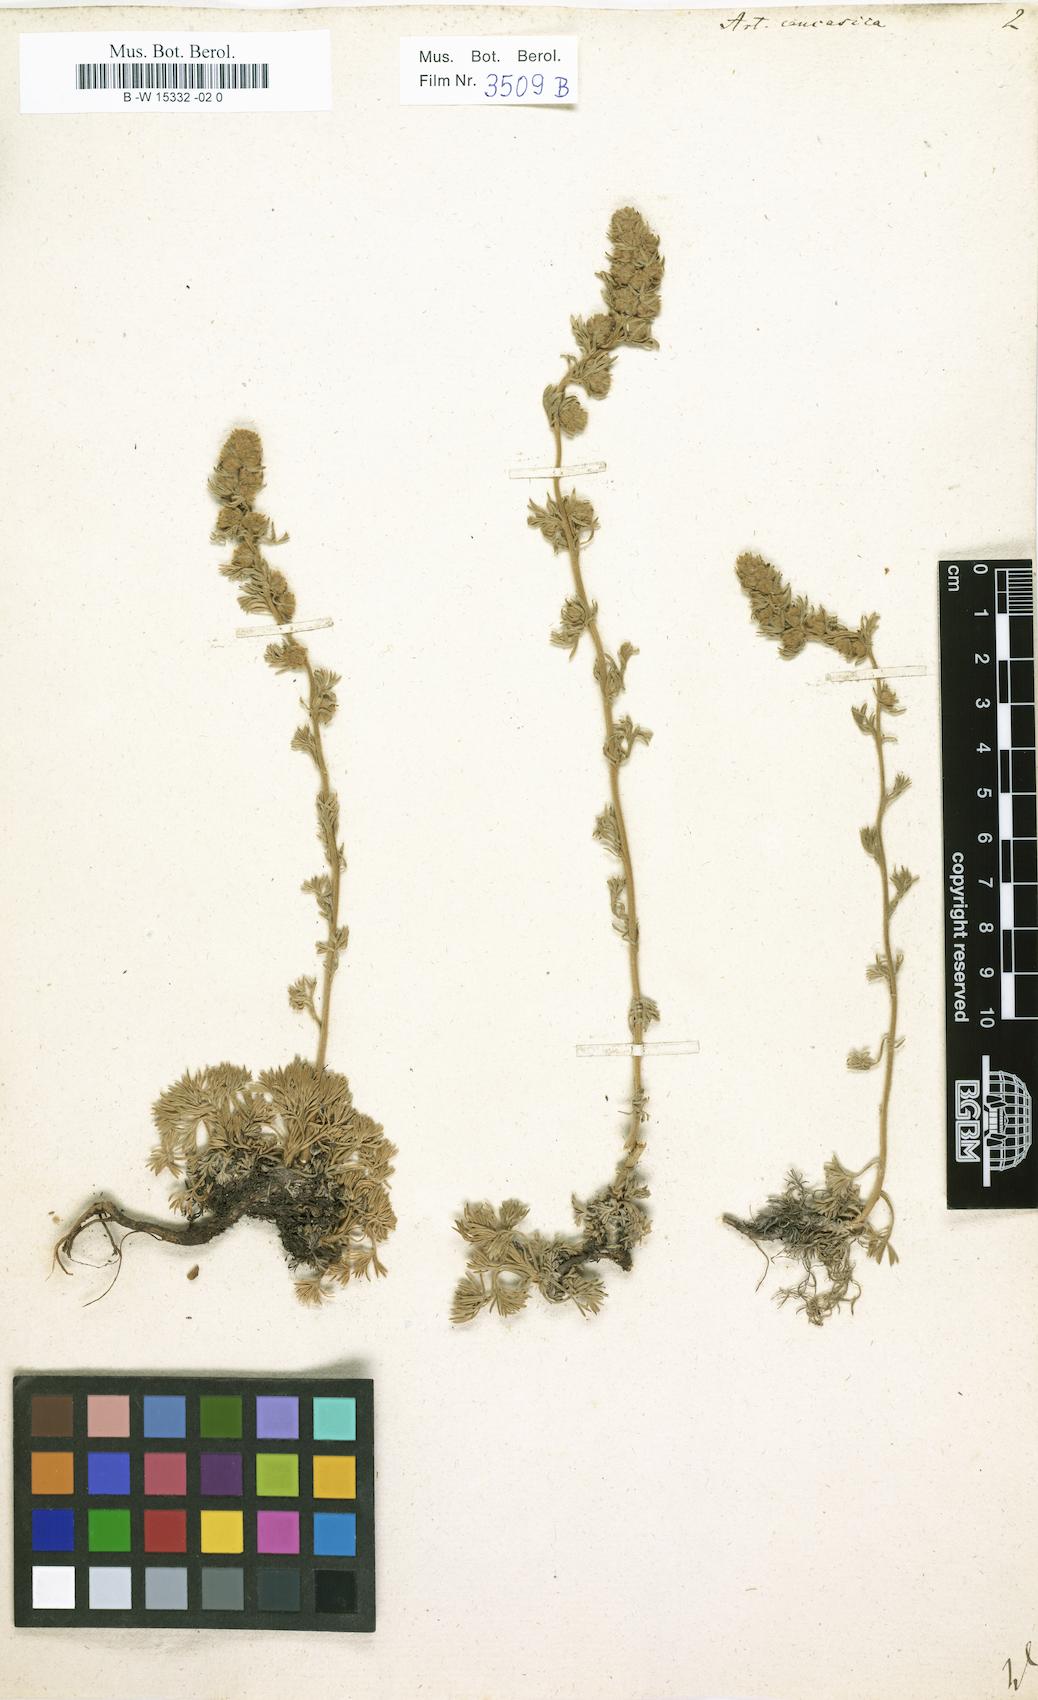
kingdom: Plantae
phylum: Tracheophyta
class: Magnoliopsida
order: Asterales
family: Asteraceae
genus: Artemisia
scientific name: Artemisia alpina
